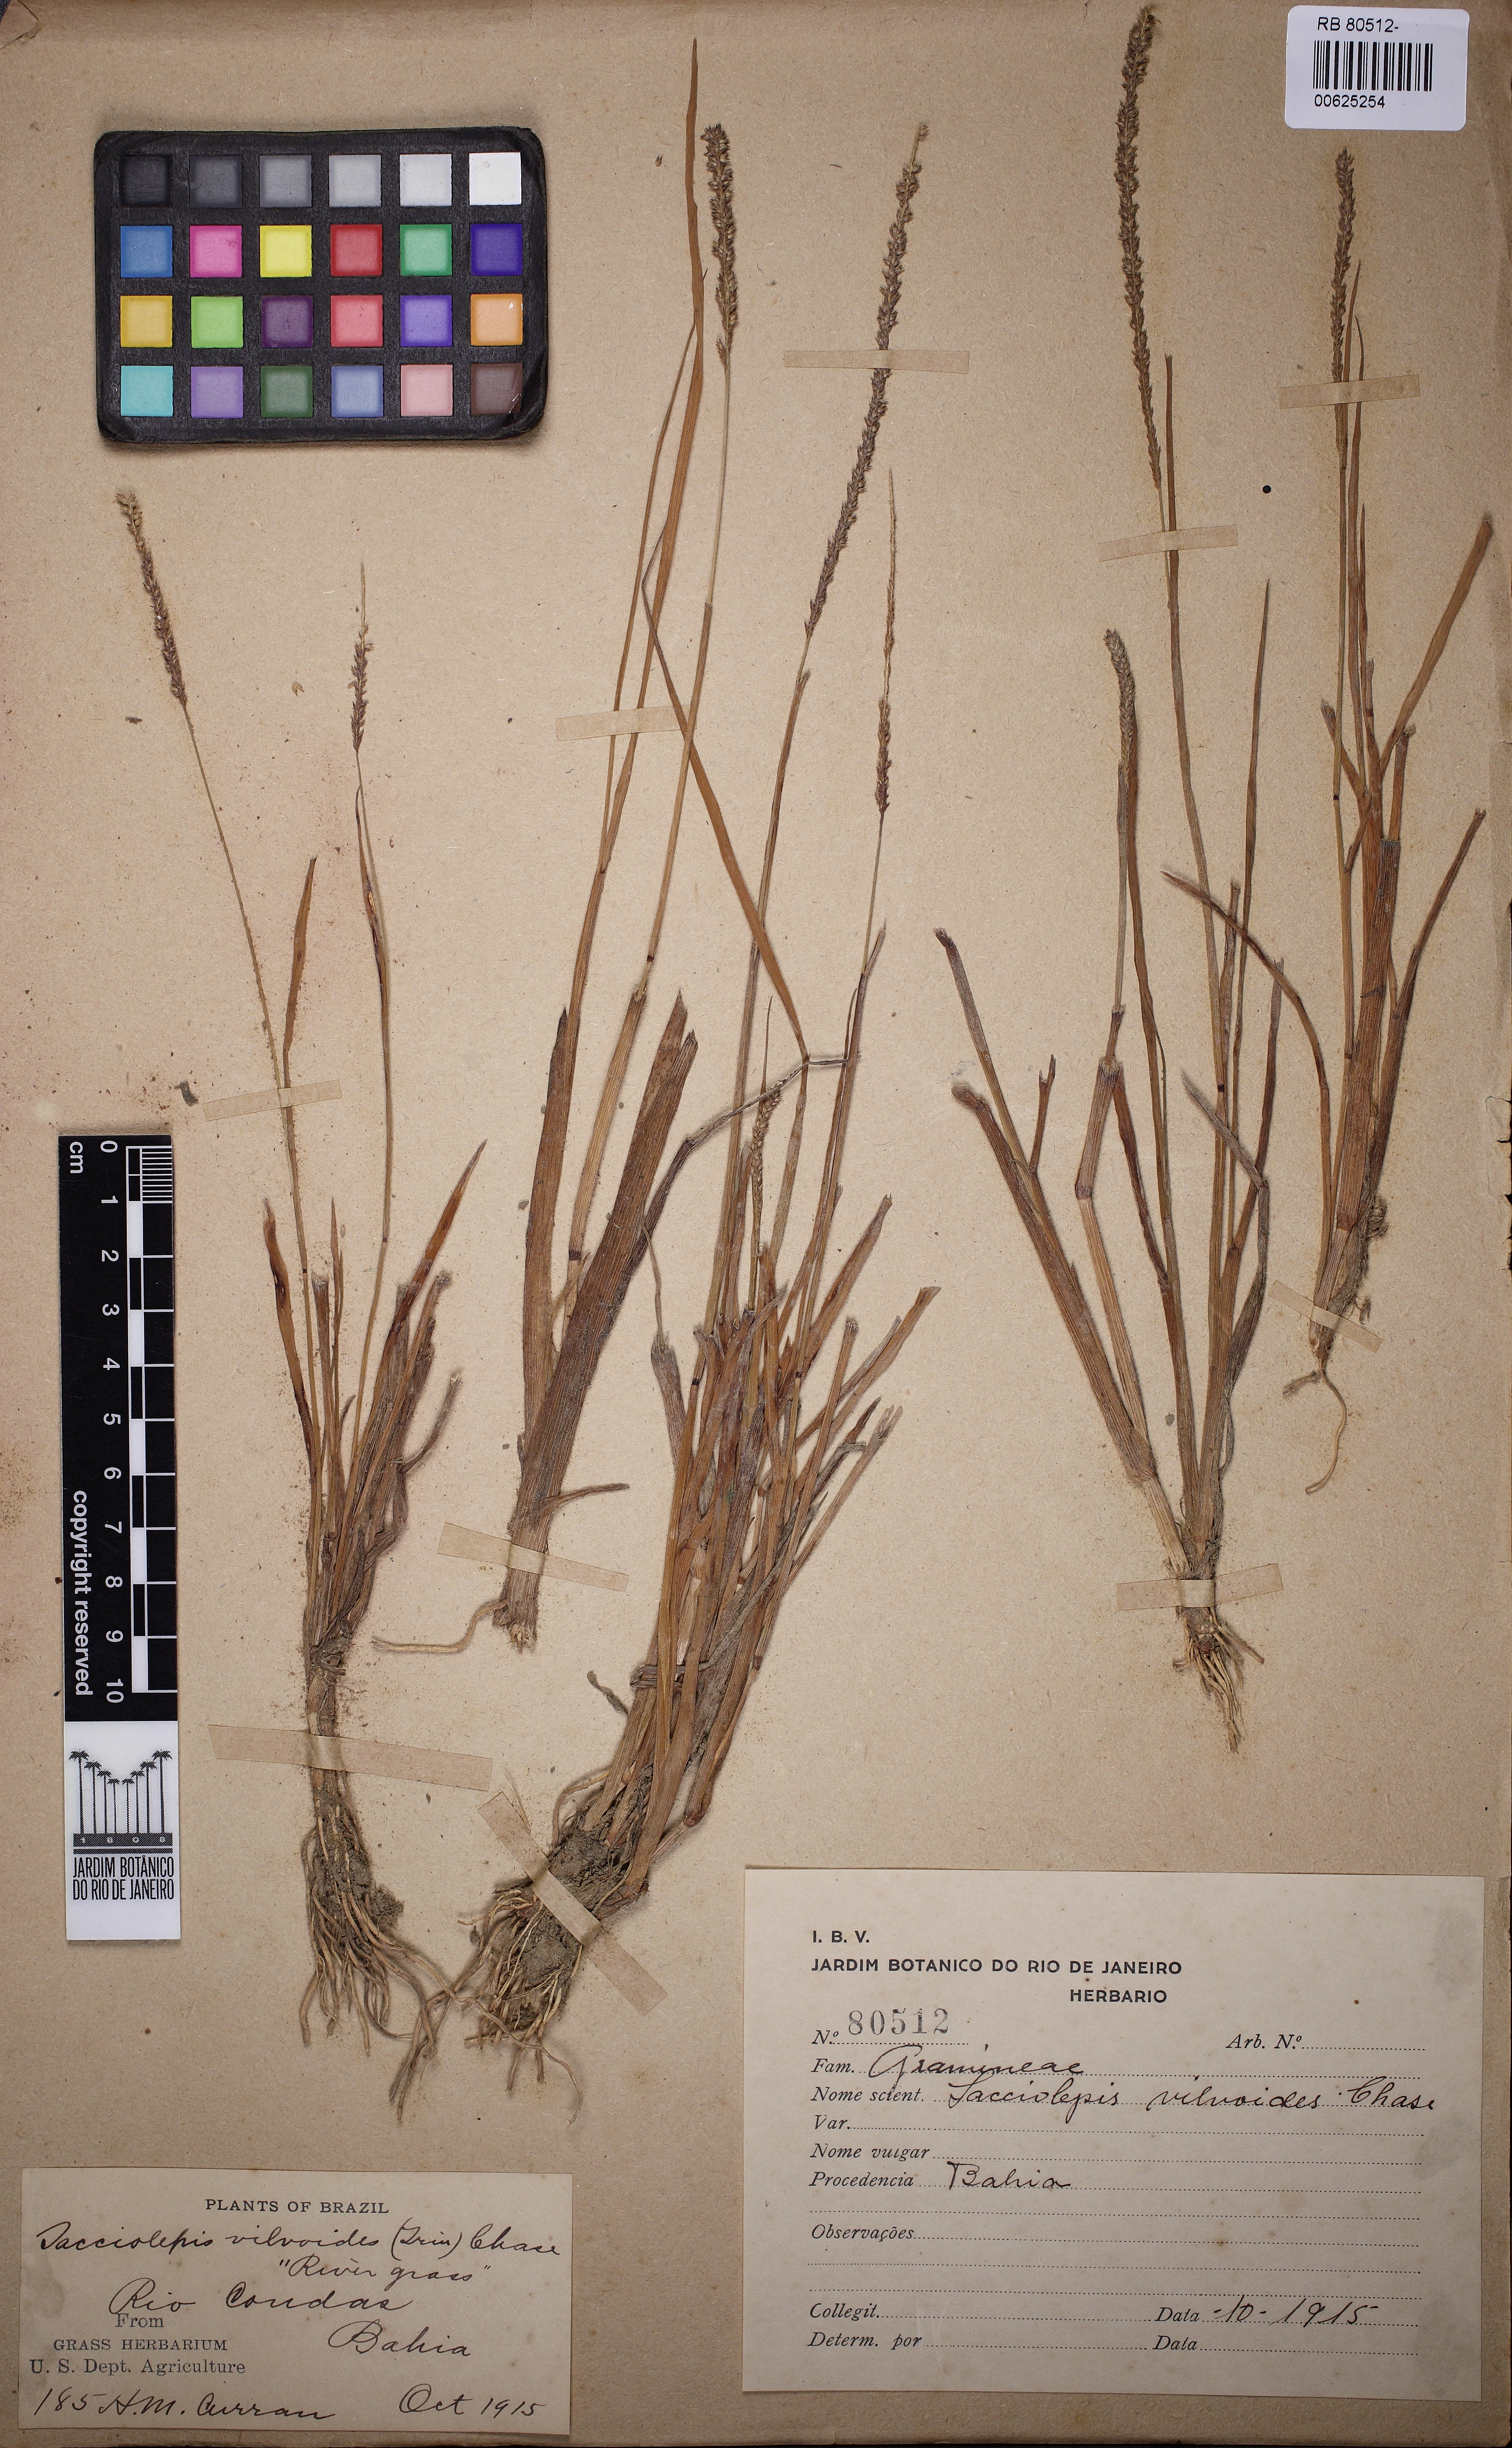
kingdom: Plantae
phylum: Tracheophyta
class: Liliopsida
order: Poales
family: Poaceae
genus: Sacciolepis
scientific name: Sacciolepis vilvoides
